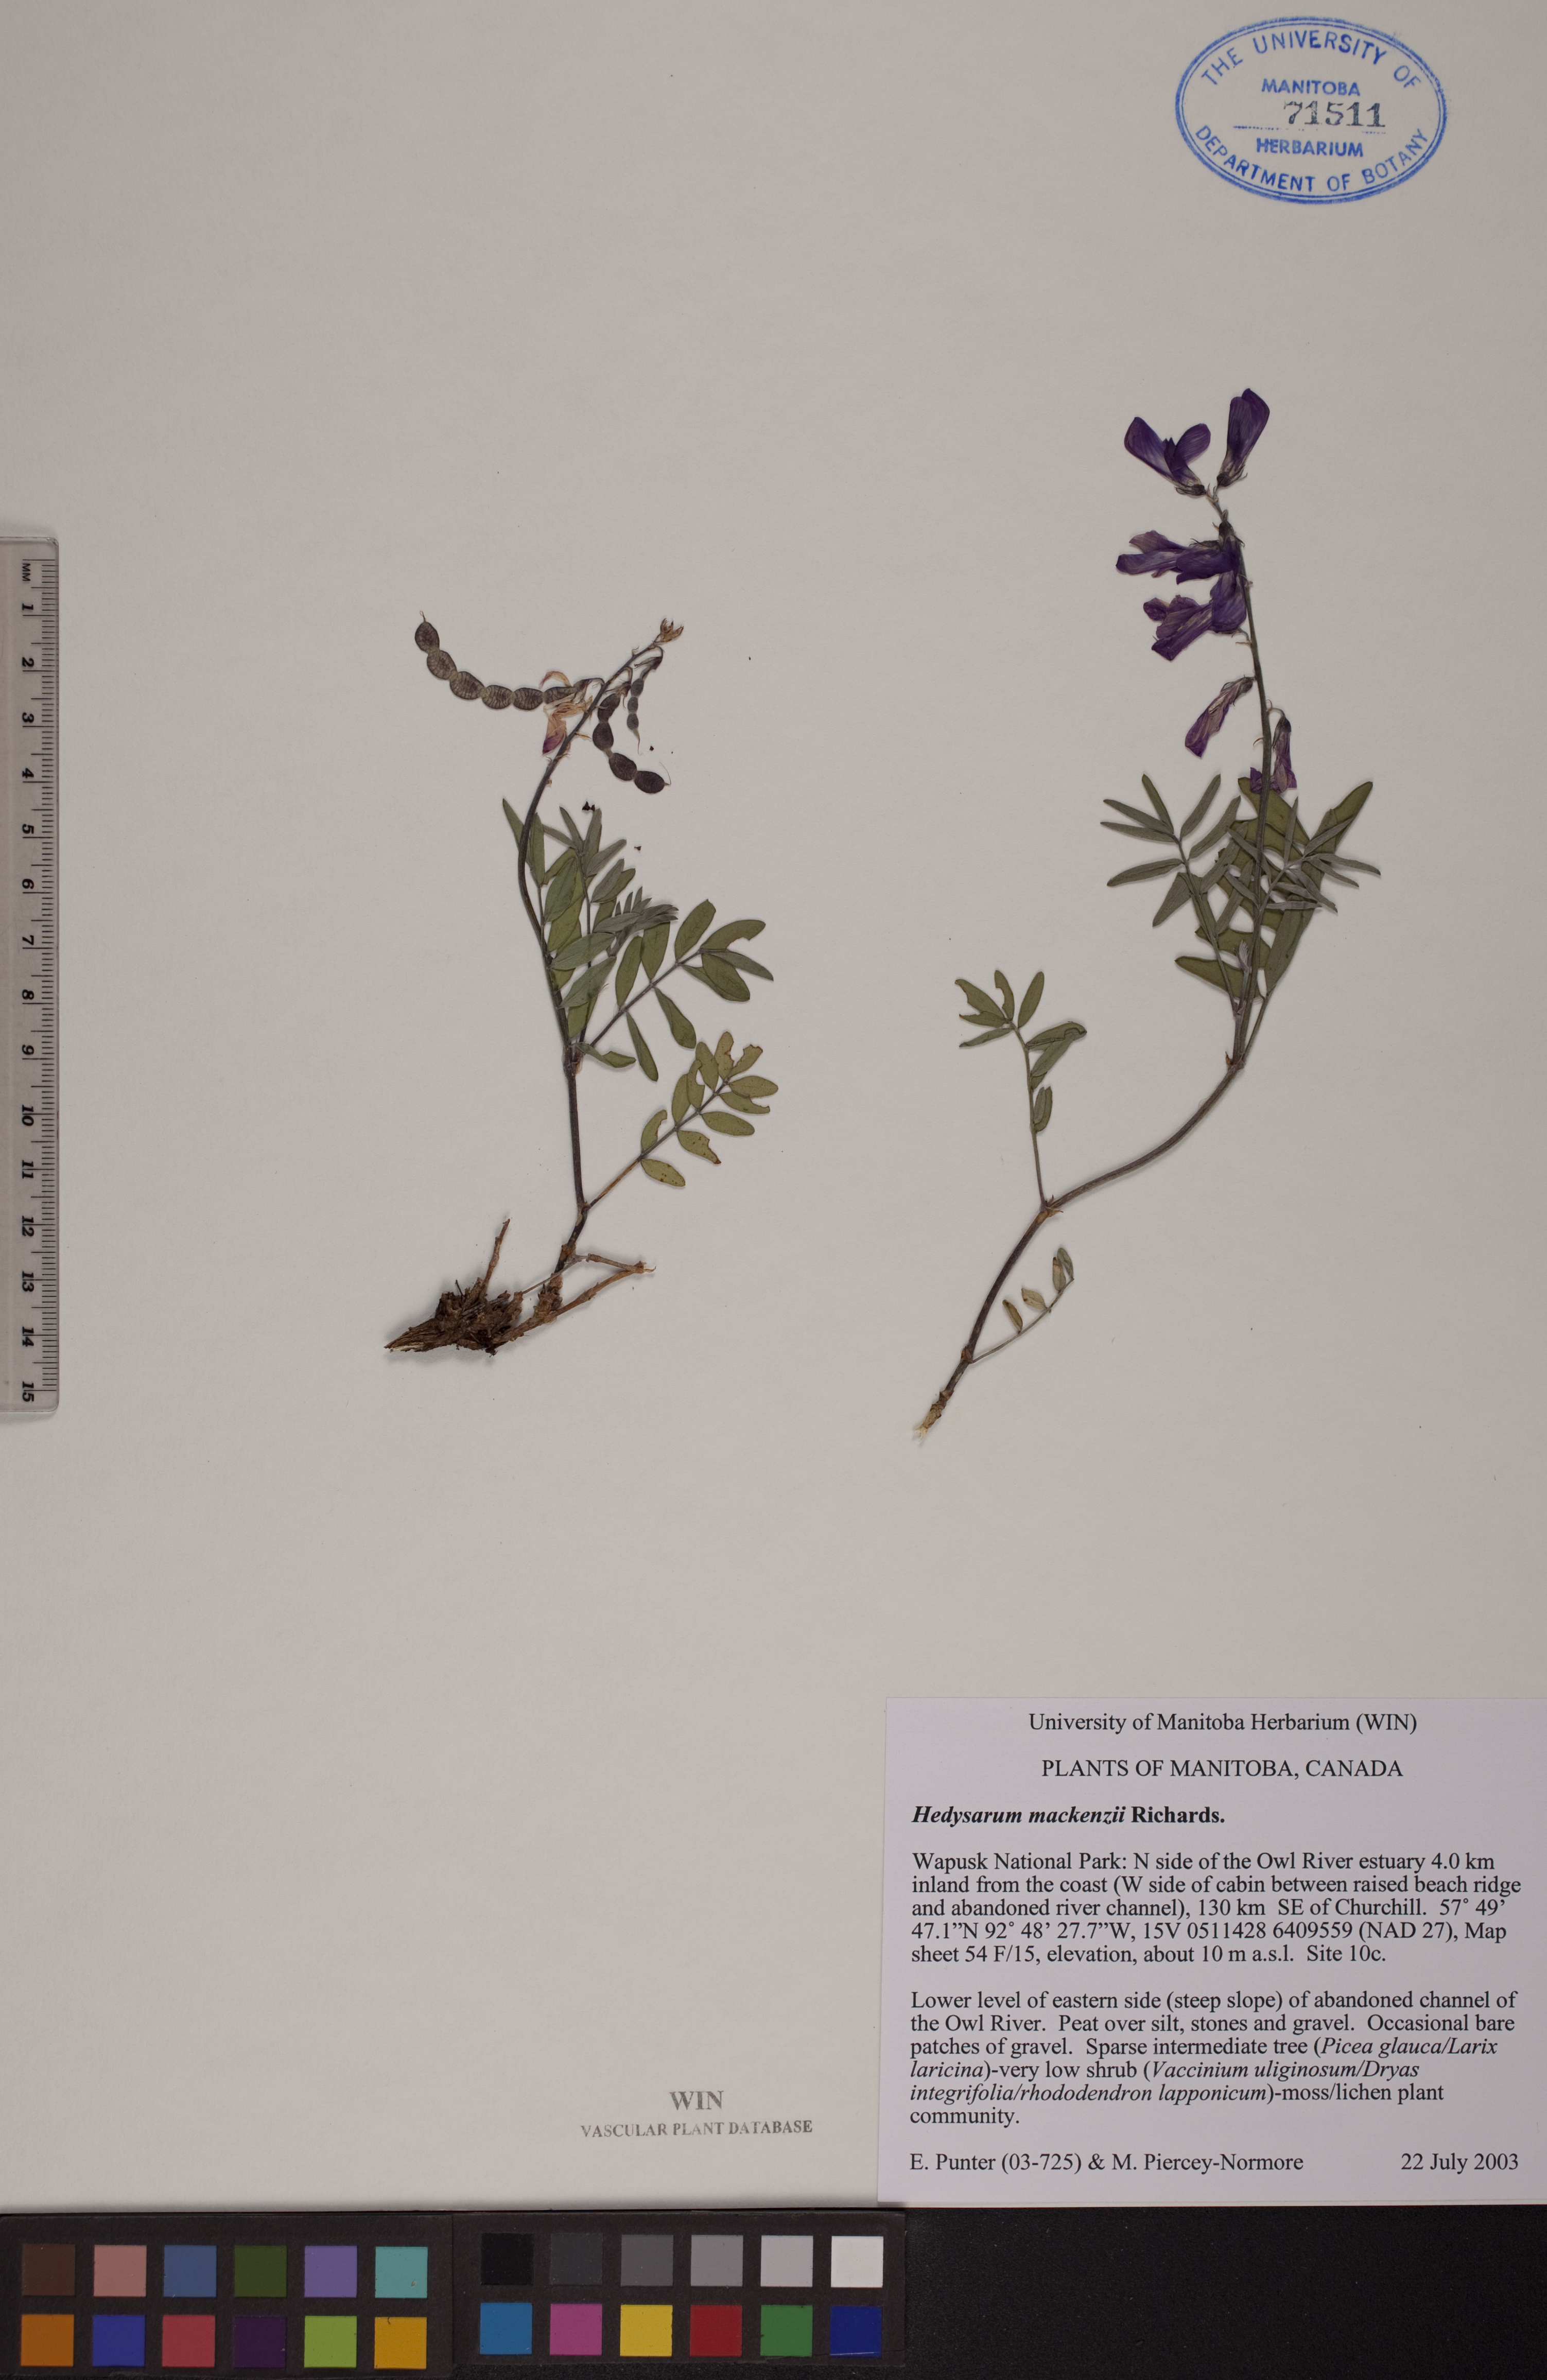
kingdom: Plantae
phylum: Tracheophyta
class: Magnoliopsida
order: Fabales
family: Fabaceae
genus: Hedysarum
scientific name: Hedysarum boreale
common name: Northern sweet-vetch
